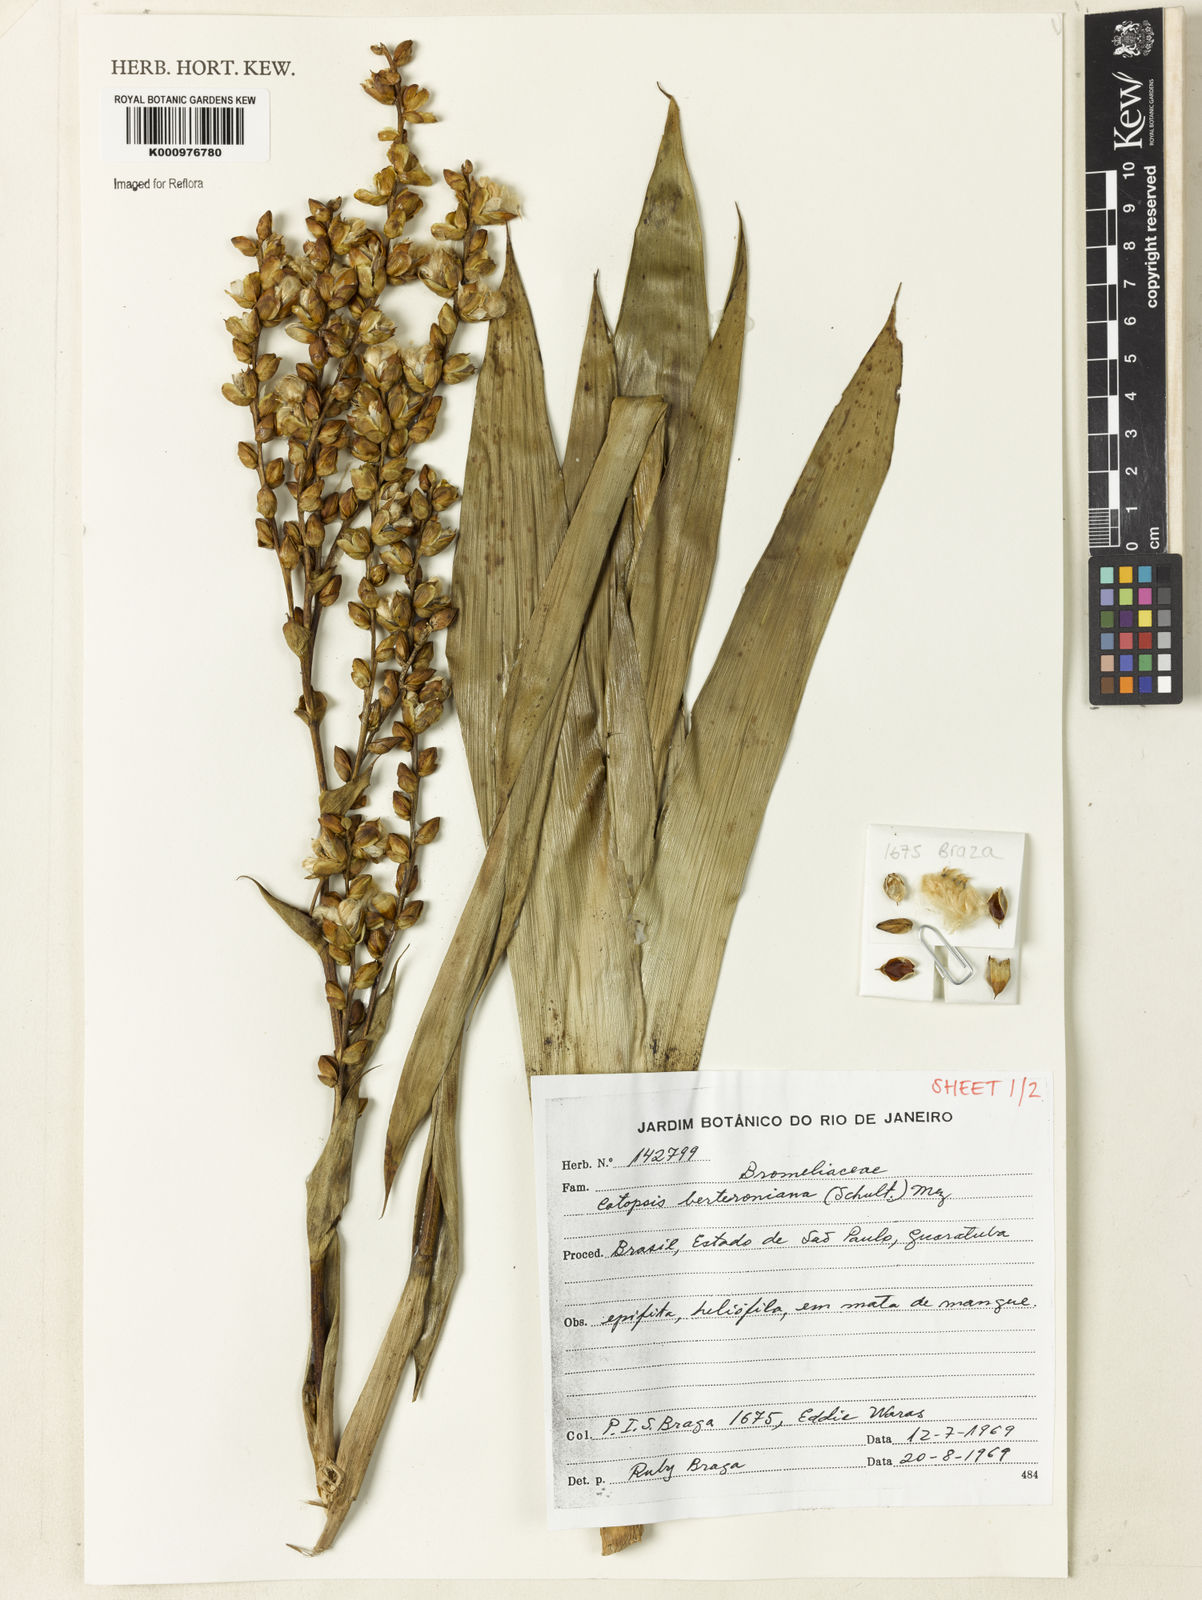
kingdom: Plantae
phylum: Tracheophyta
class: Liliopsida
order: Poales
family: Bromeliaceae
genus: Catopsis
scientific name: Catopsis berteroniana
